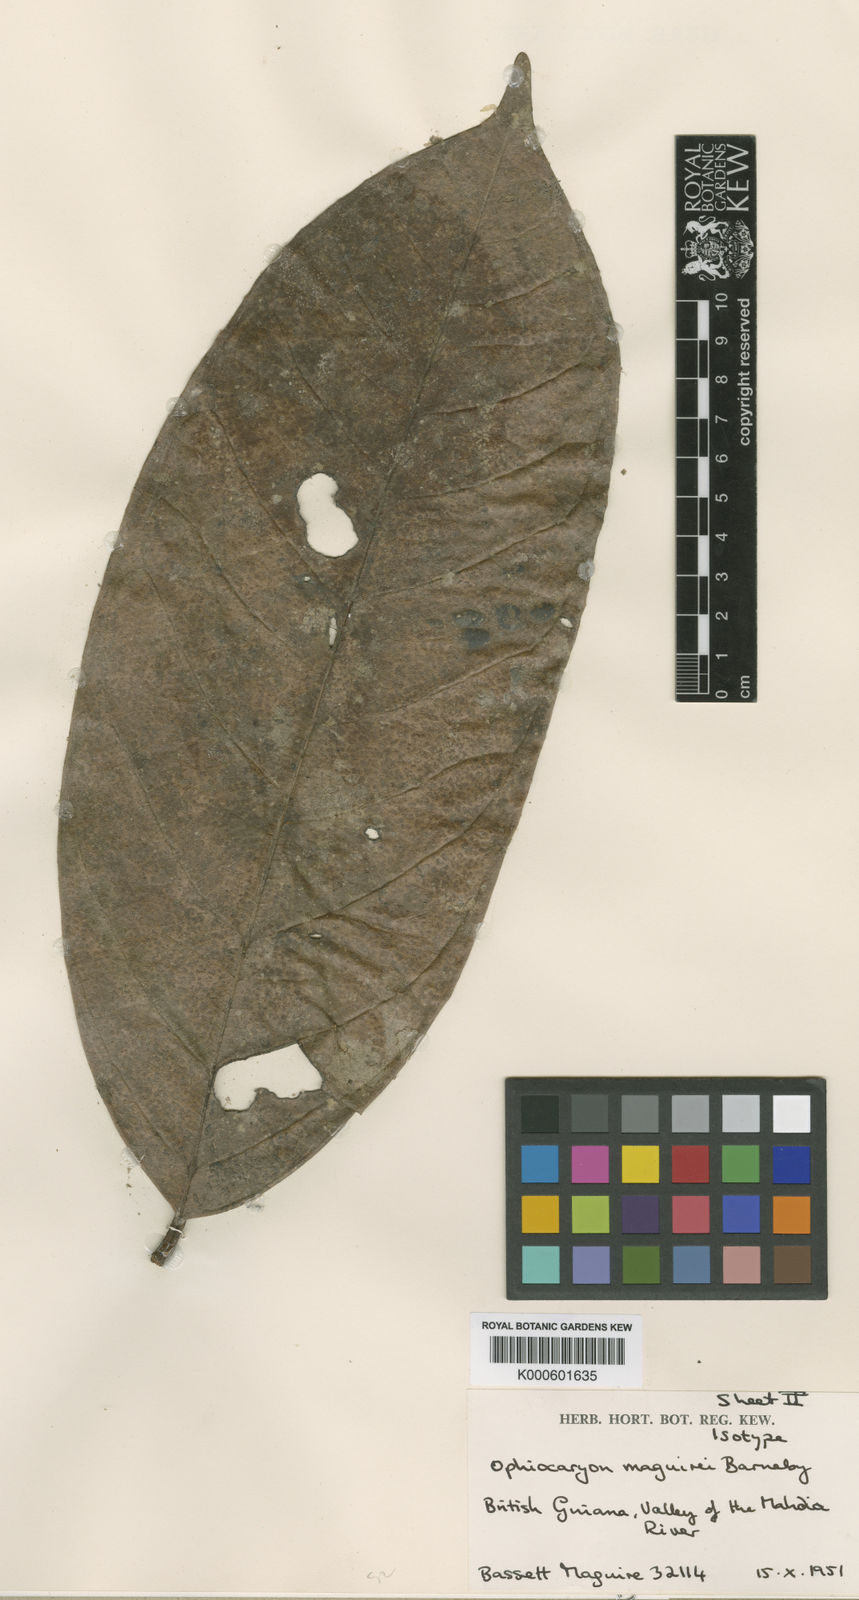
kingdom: Plantae
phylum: Tracheophyta
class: Magnoliopsida
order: Proteales
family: Sabiaceae
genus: Ophiocaryon
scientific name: Ophiocaryon maguirei
